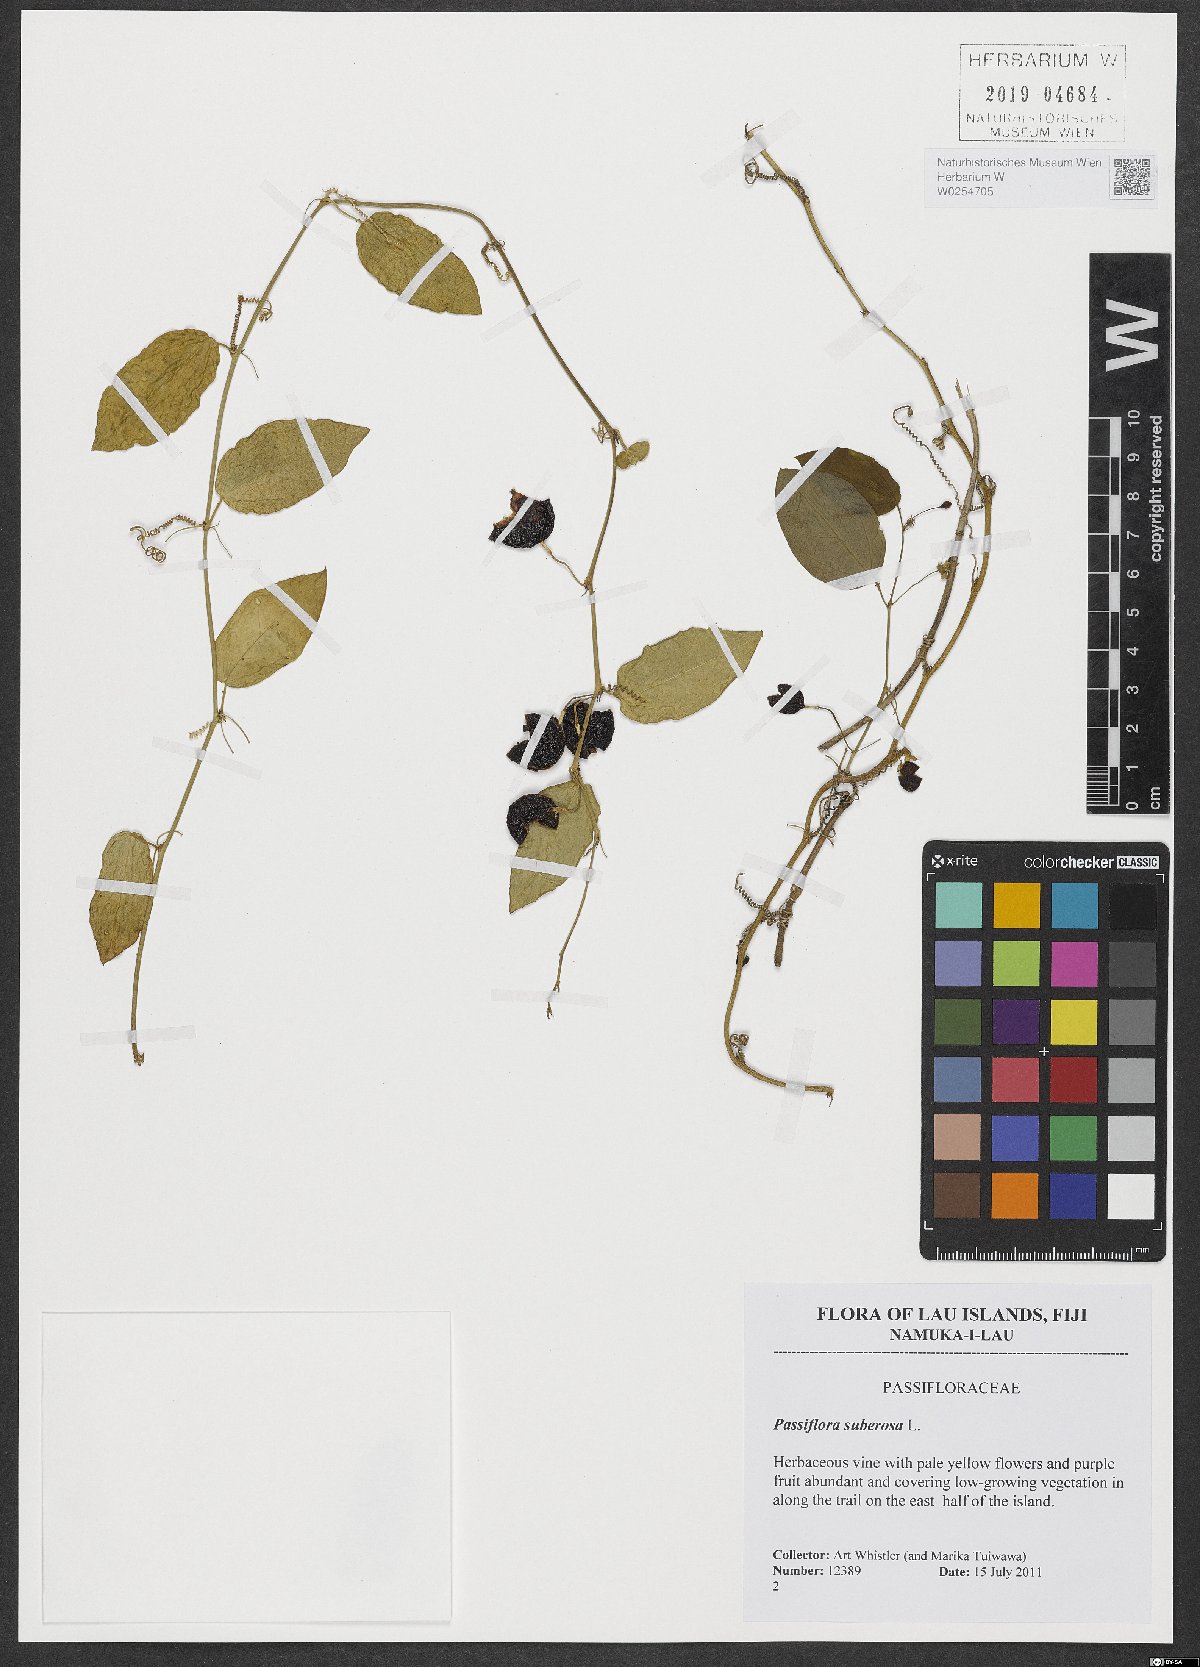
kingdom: Plantae
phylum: Tracheophyta
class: Magnoliopsida
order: Malpighiales
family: Passifloraceae
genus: Passiflora
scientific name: Passiflora suberosa
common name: Wild passionfruit
